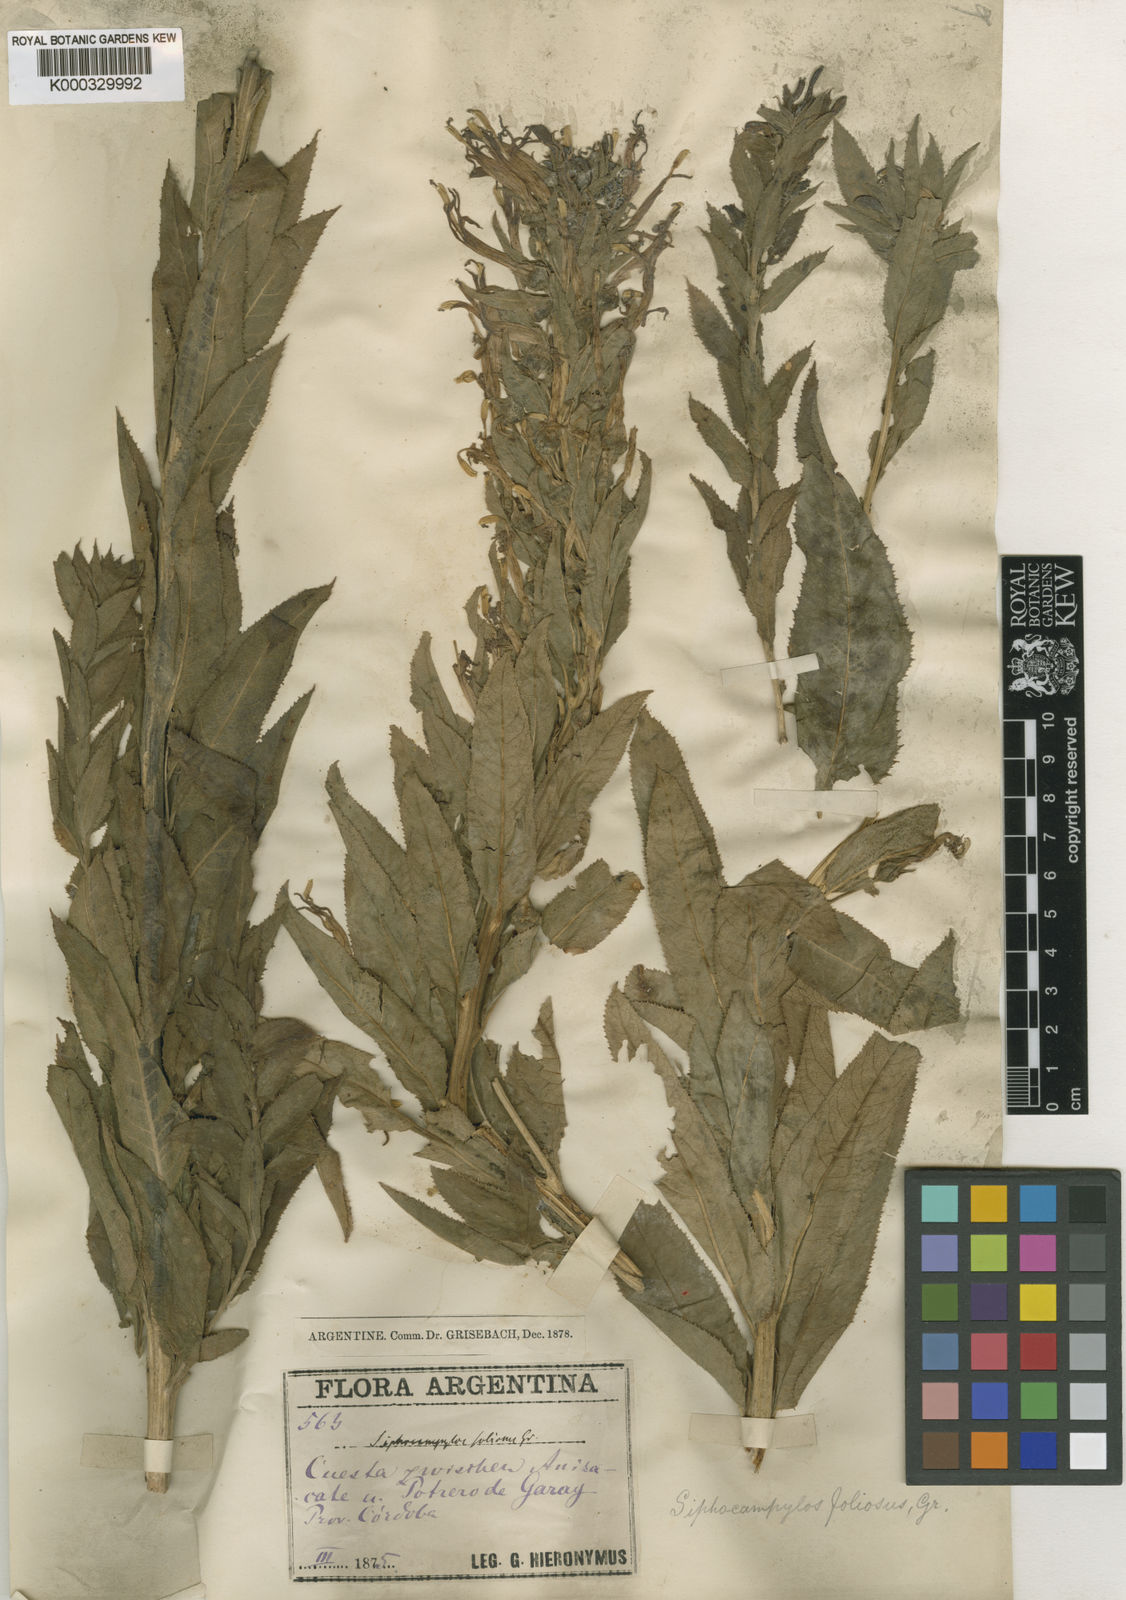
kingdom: Plantae
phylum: Tracheophyta
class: Magnoliopsida
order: Asterales
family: Campanulaceae
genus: Siphocampylus
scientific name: Siphocampylus foliosus
